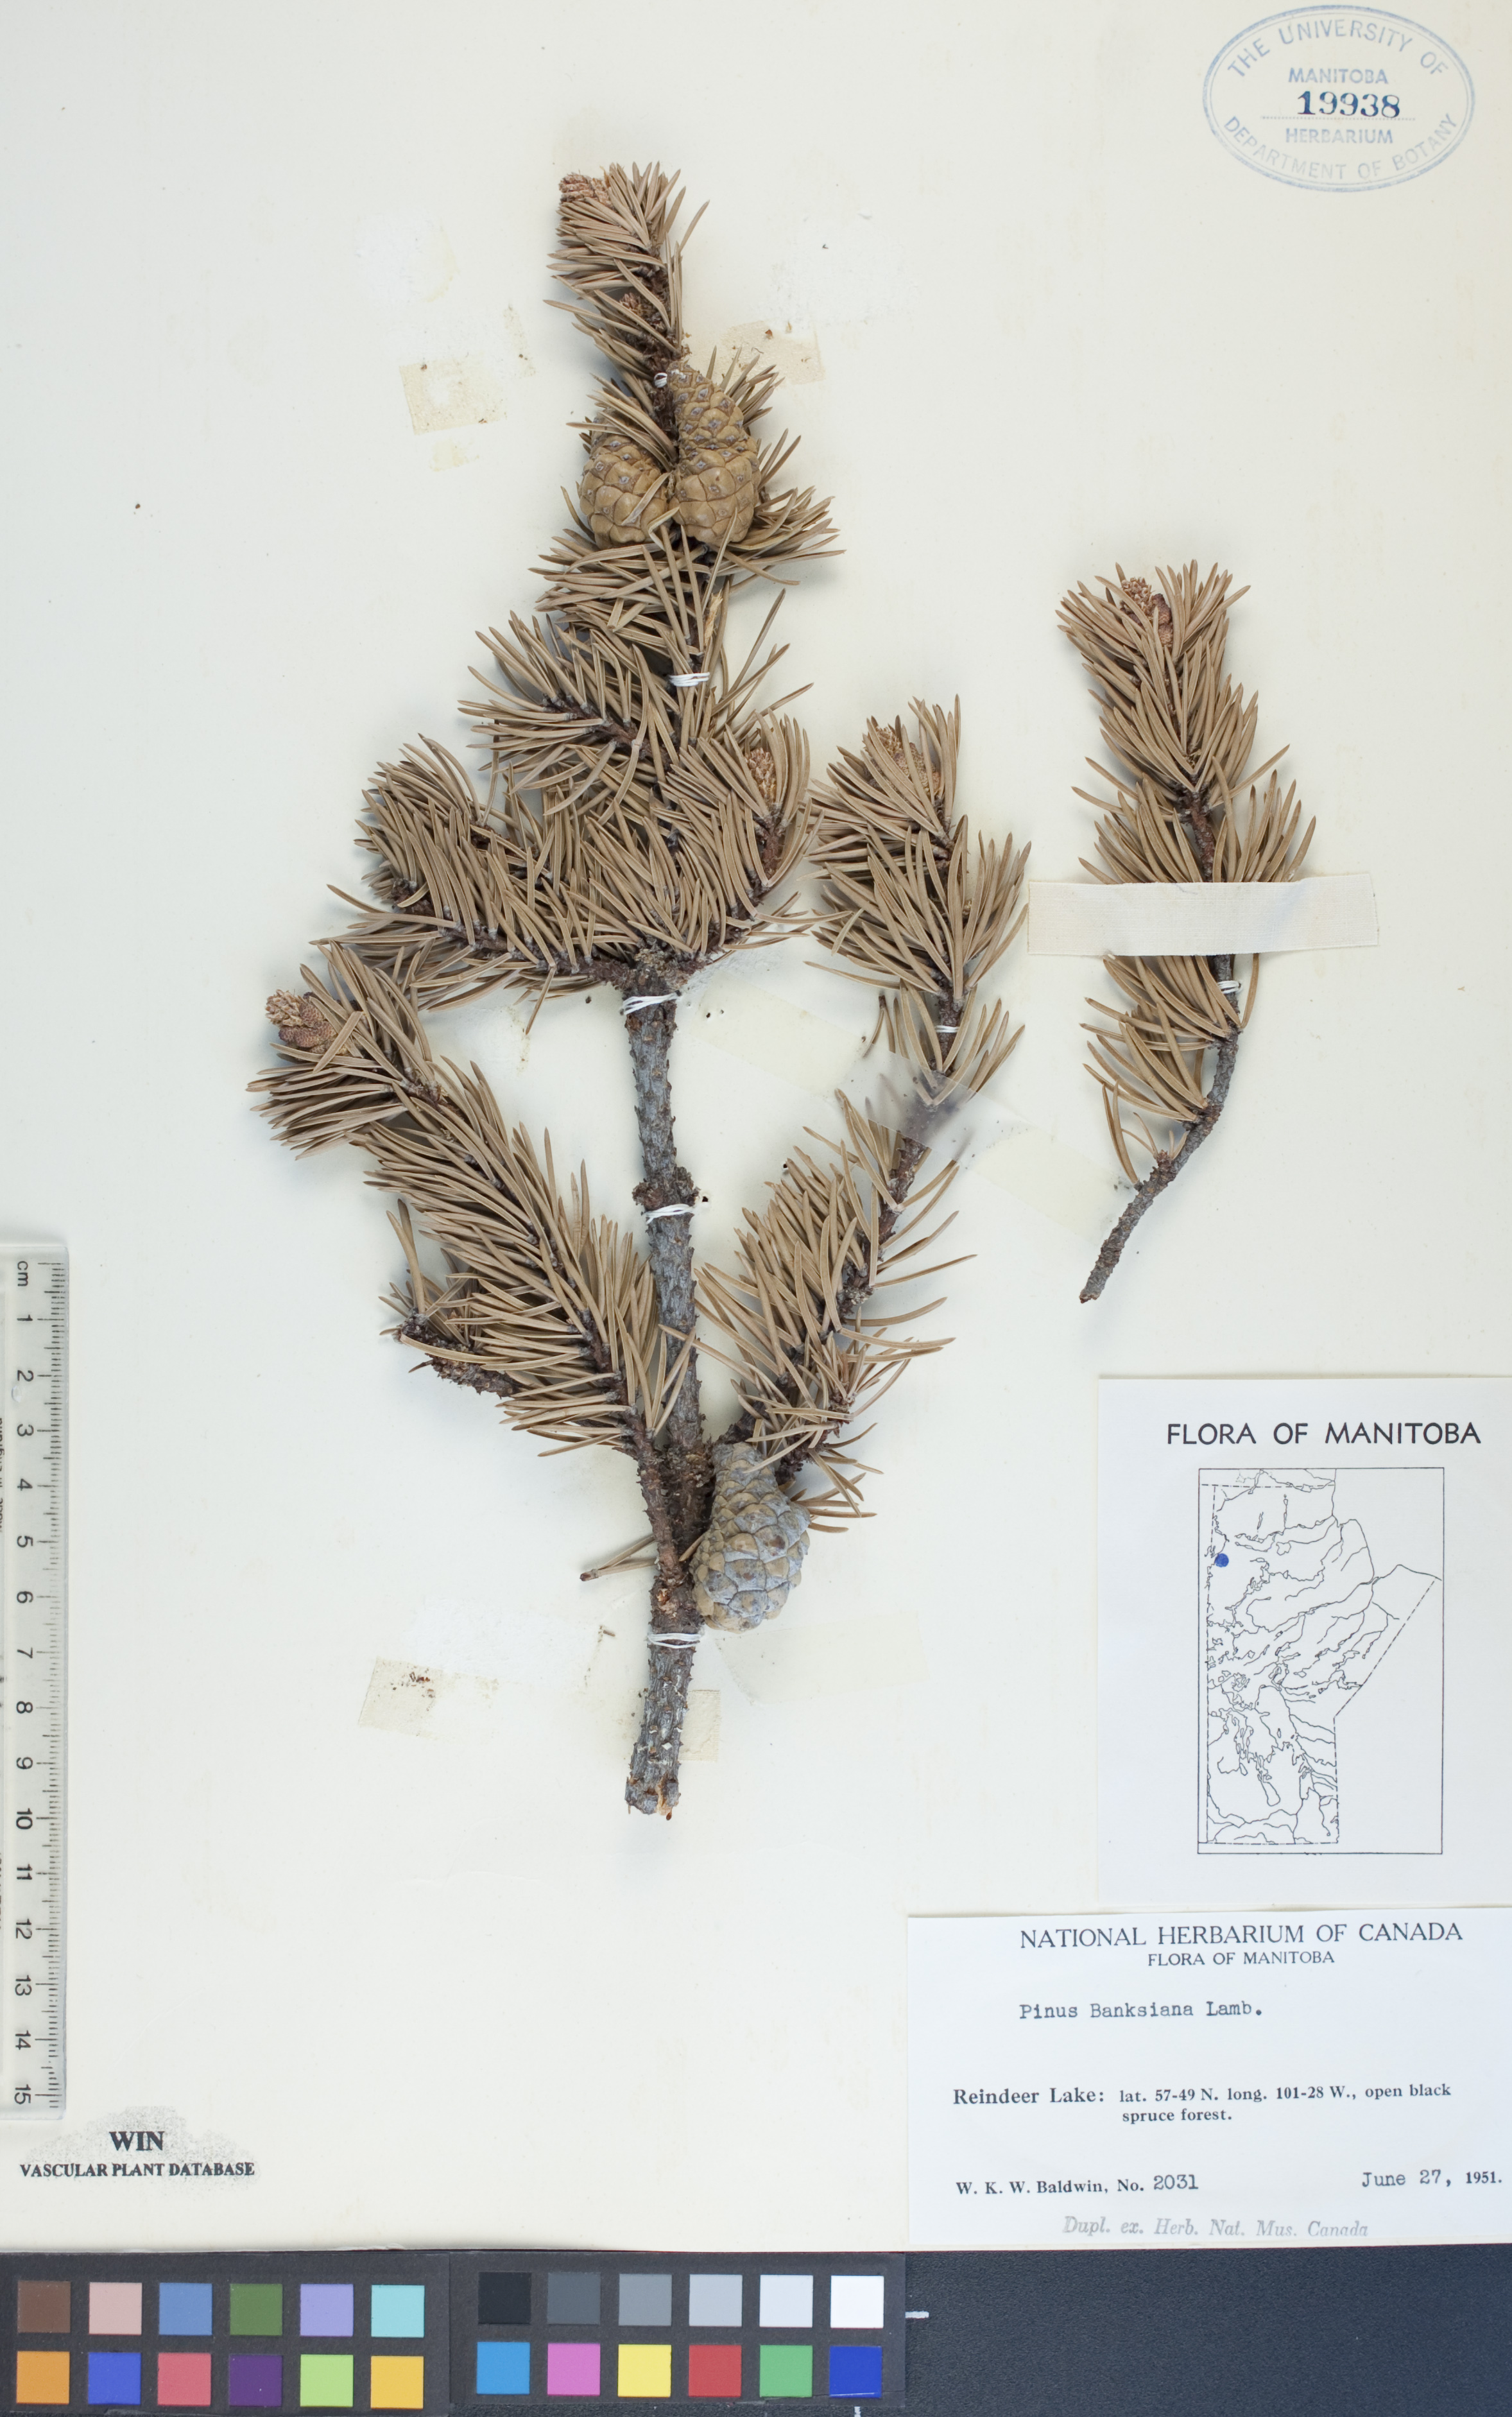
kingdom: Plantae
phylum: Tracheophyta
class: Pinopsida
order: Pinales
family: Pinaceae
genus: Pinus
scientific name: Pinus banksiana
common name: Jack pine
